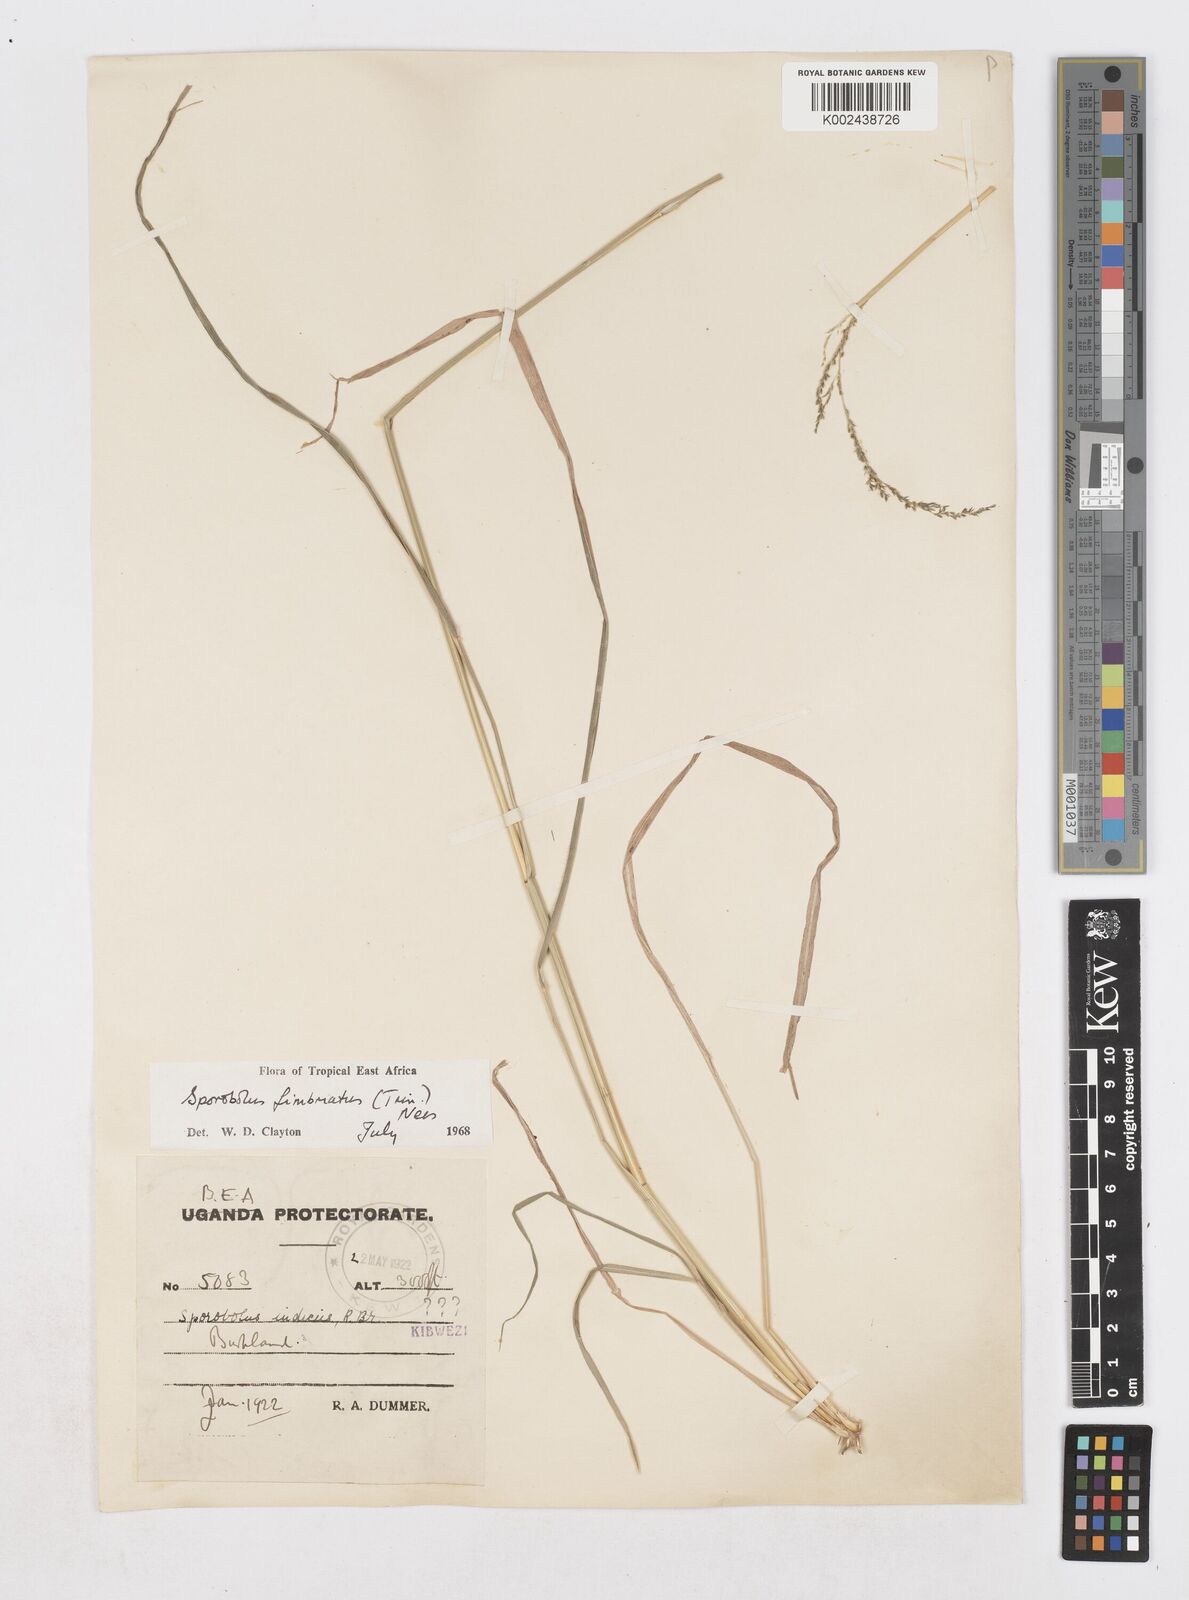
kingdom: Plantae
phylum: Tracheophyta
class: Liliopsida
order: Poales
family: Poaceae
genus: Sporobolus
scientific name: Sporobolus fimbriatus
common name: Fringed dropseed
